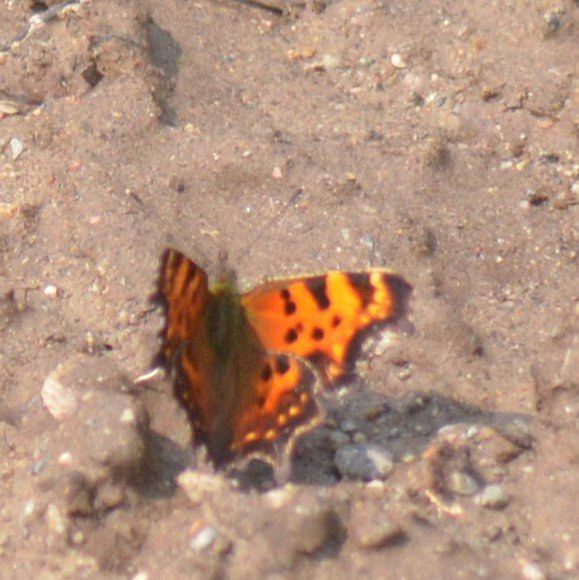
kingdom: Animalia
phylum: Arthropoda
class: Insecta
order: Lepidoptera
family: Nymphalidae
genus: Polygonia
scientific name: Polygonia faunus
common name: Green Comma
